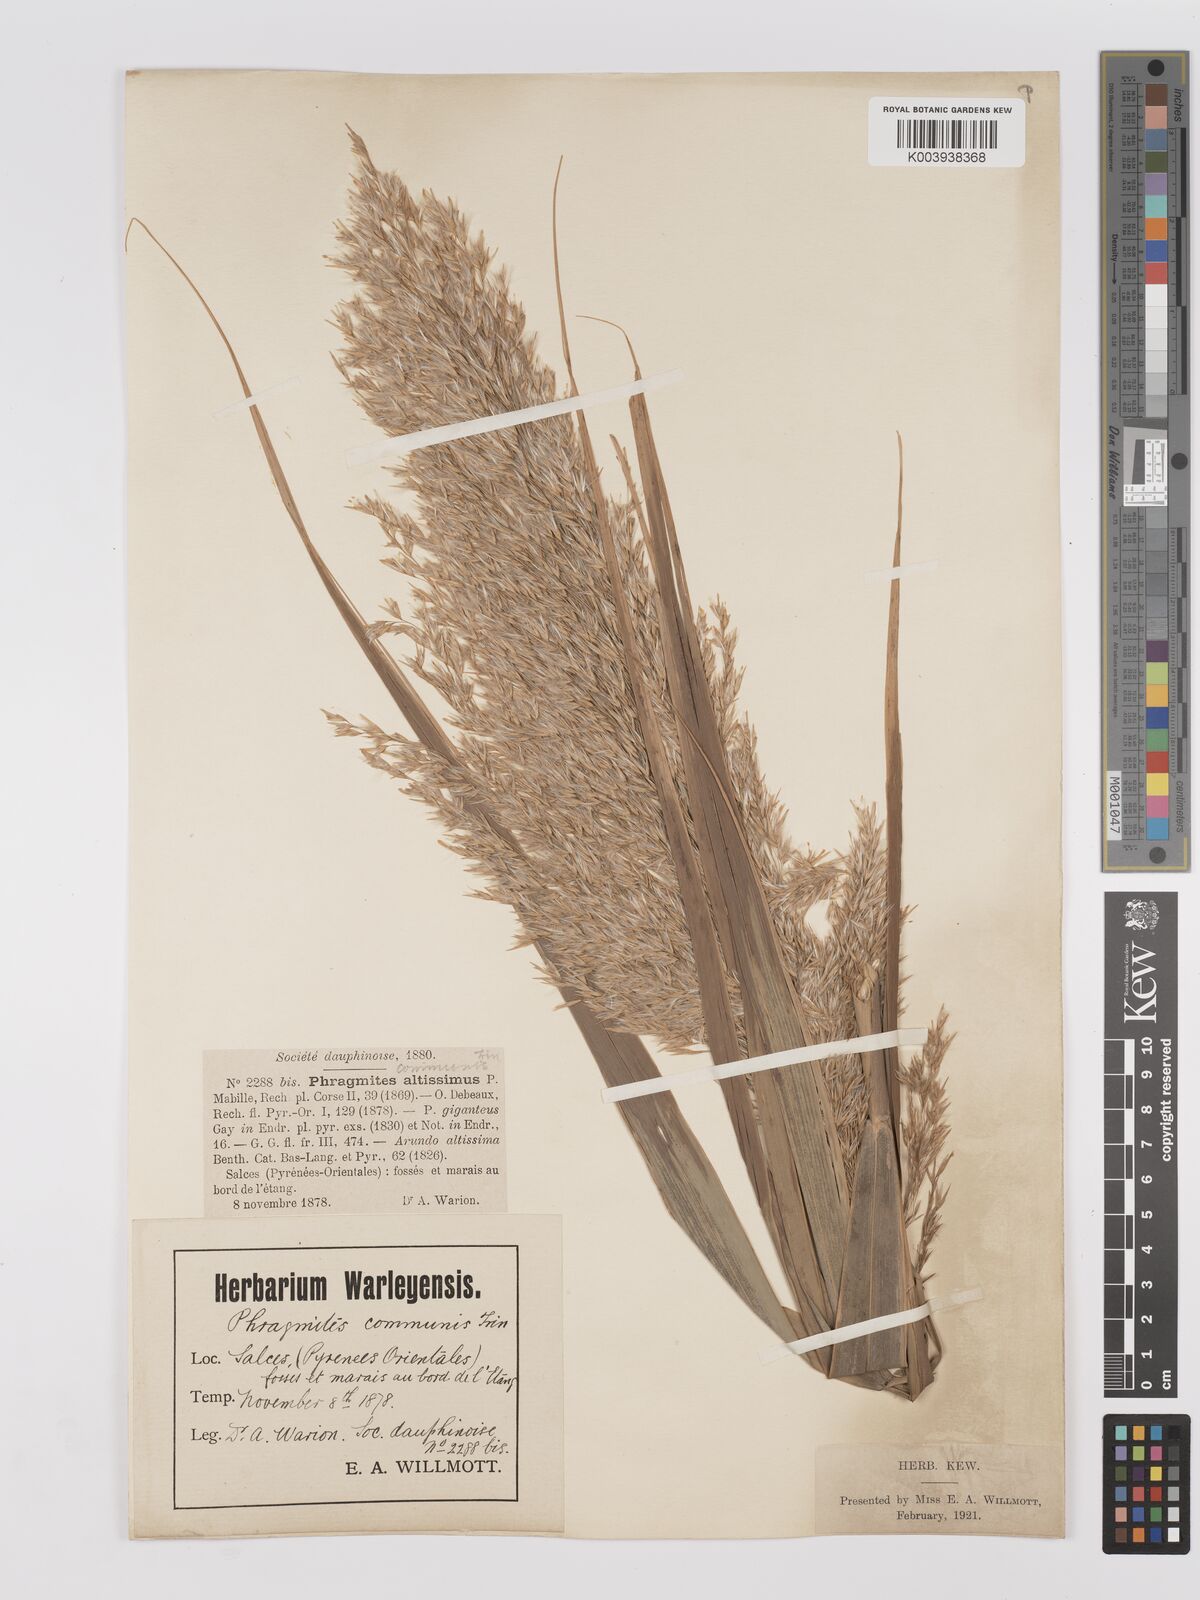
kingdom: Plantae
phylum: Tracheophyta
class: Liliopsida
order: Poales
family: Poaceae
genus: Phragmites
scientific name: Phragmites australis
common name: Common reed
